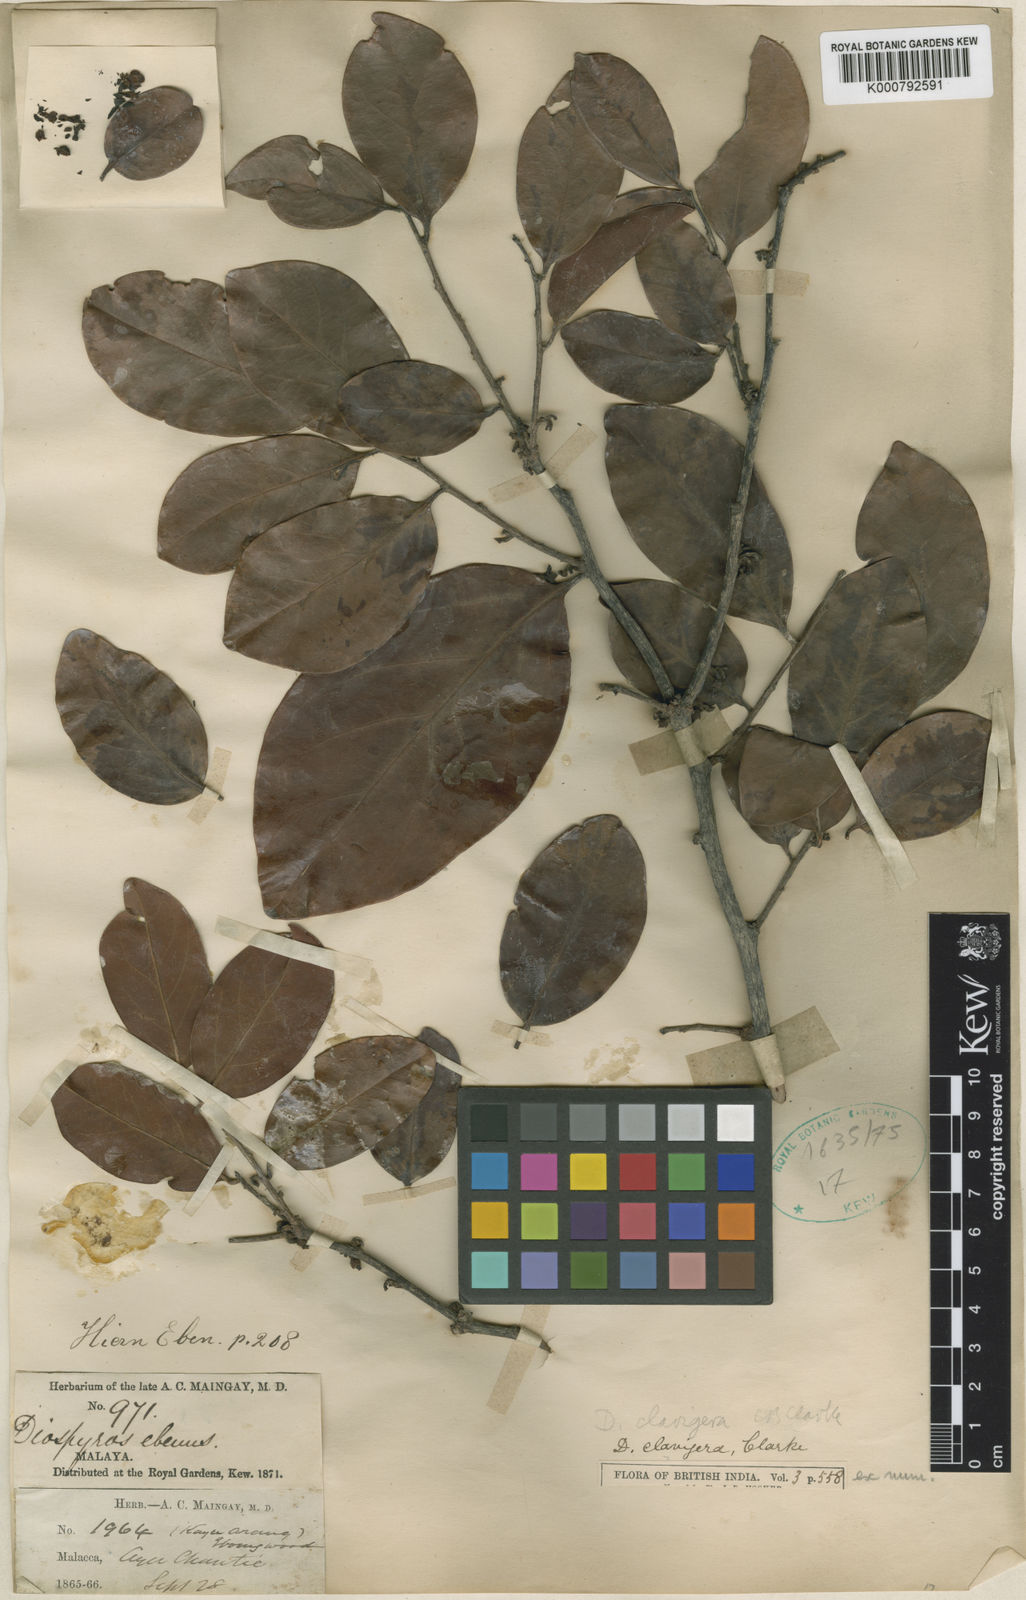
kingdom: Plantae
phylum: Tracheophyta
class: Magnoliopsida
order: Ericales
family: Ebenaceae
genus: Diospyros
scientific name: Diospyros sumatrana
